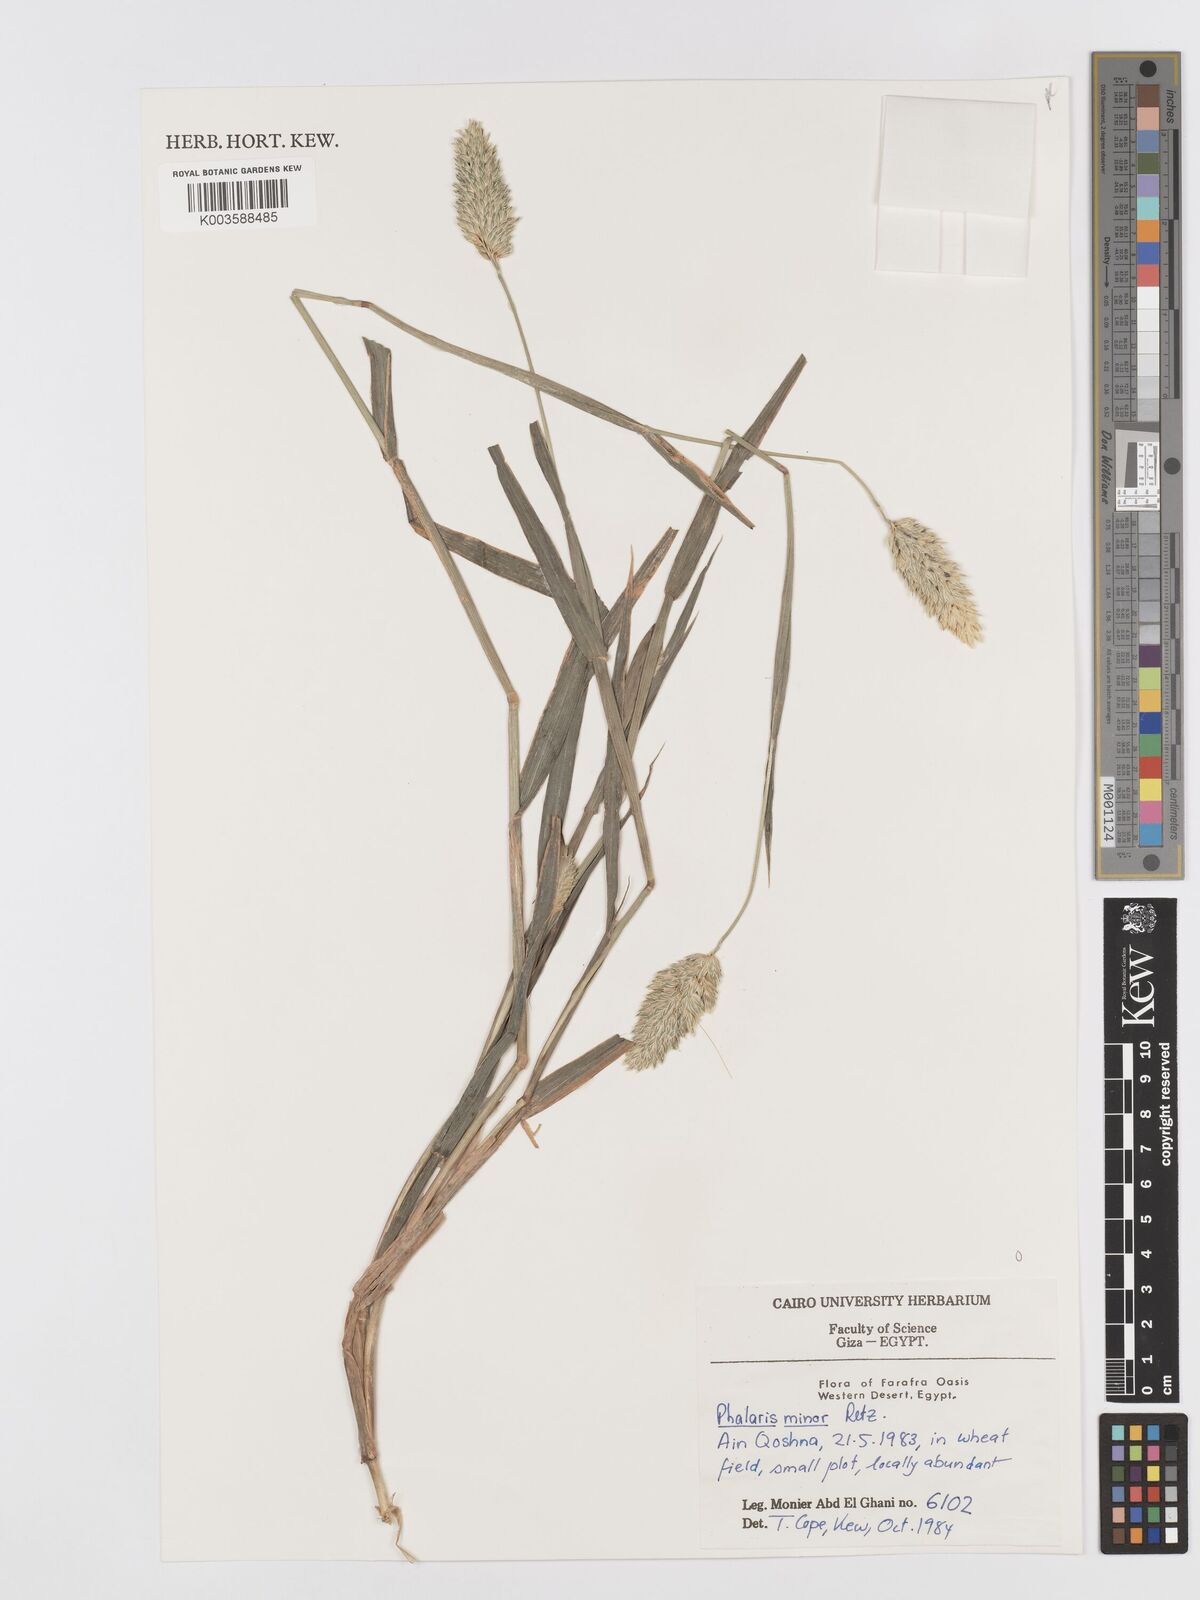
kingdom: Plantae
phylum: Tracheophyta
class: Liliopsida
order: Poales
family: Poaceae
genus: Phalaris
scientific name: Phalaris minor
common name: Littleseed canarygrass
